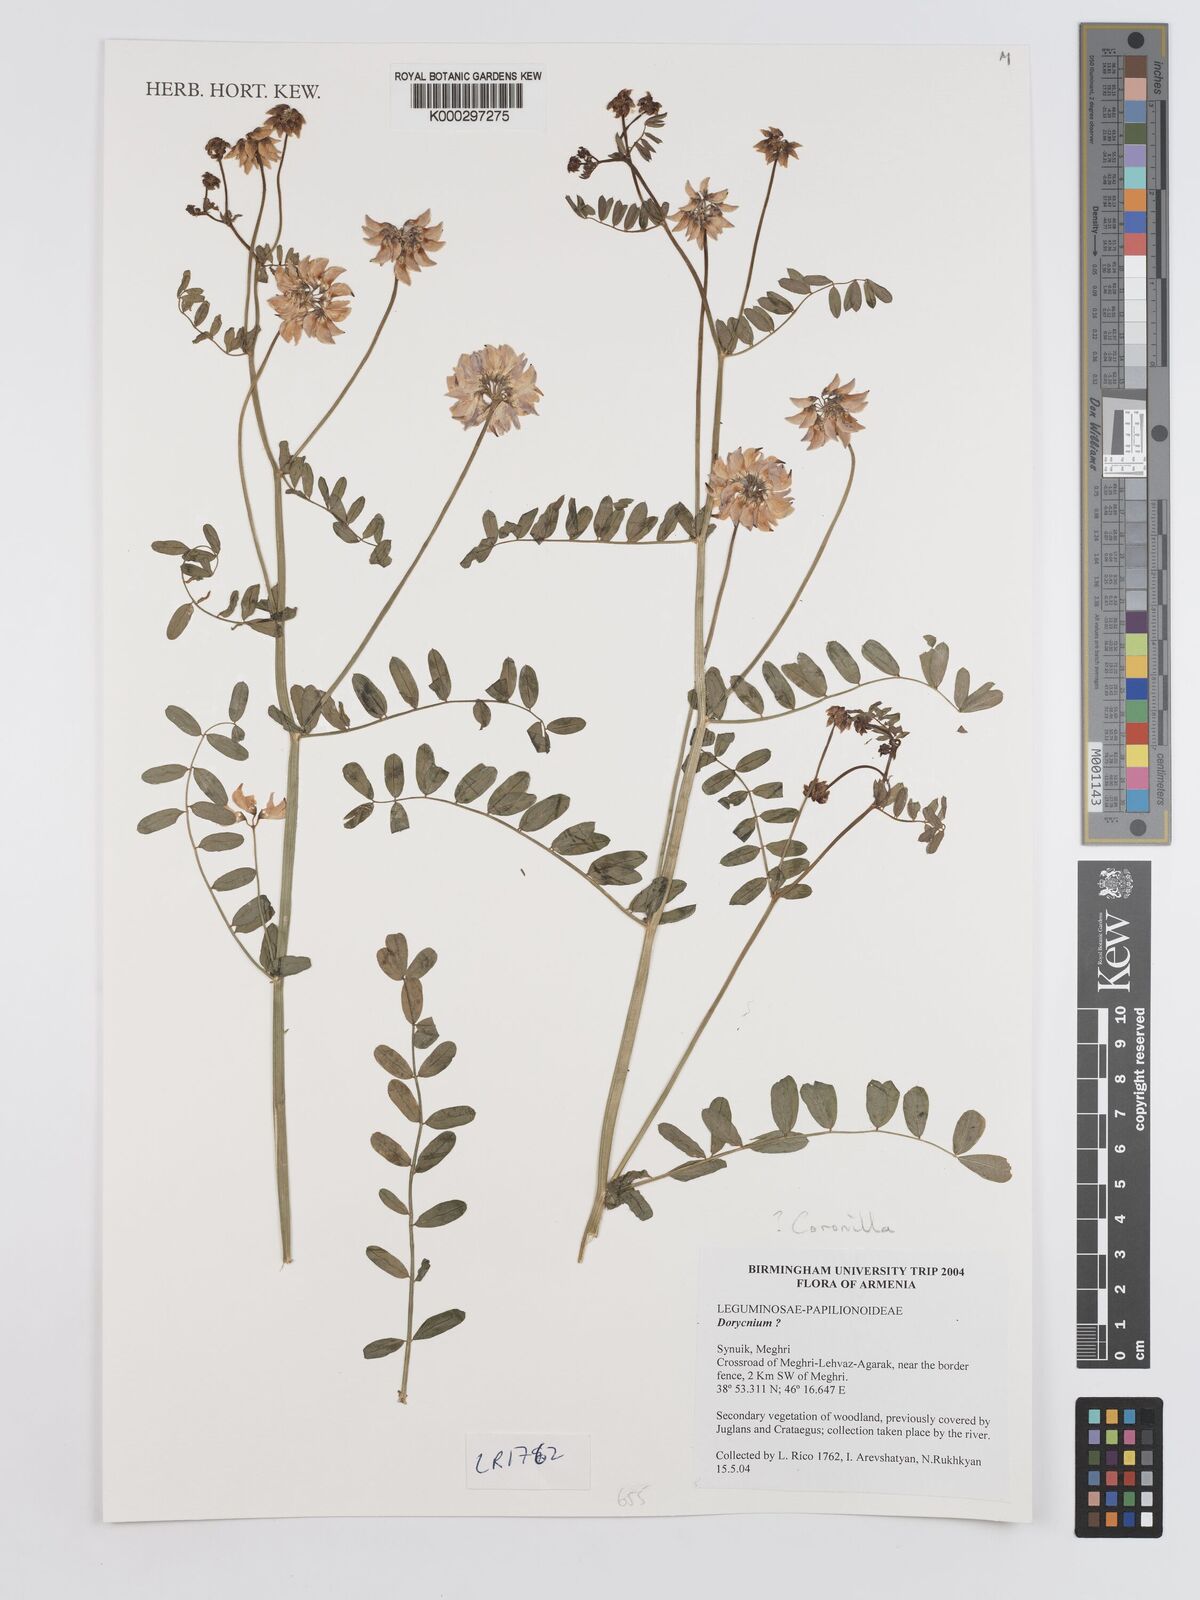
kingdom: Plantae
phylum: Tracheophyta
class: Magnoliopsida
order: Fabales
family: Fabaceae
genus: Lotus
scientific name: Lotus
